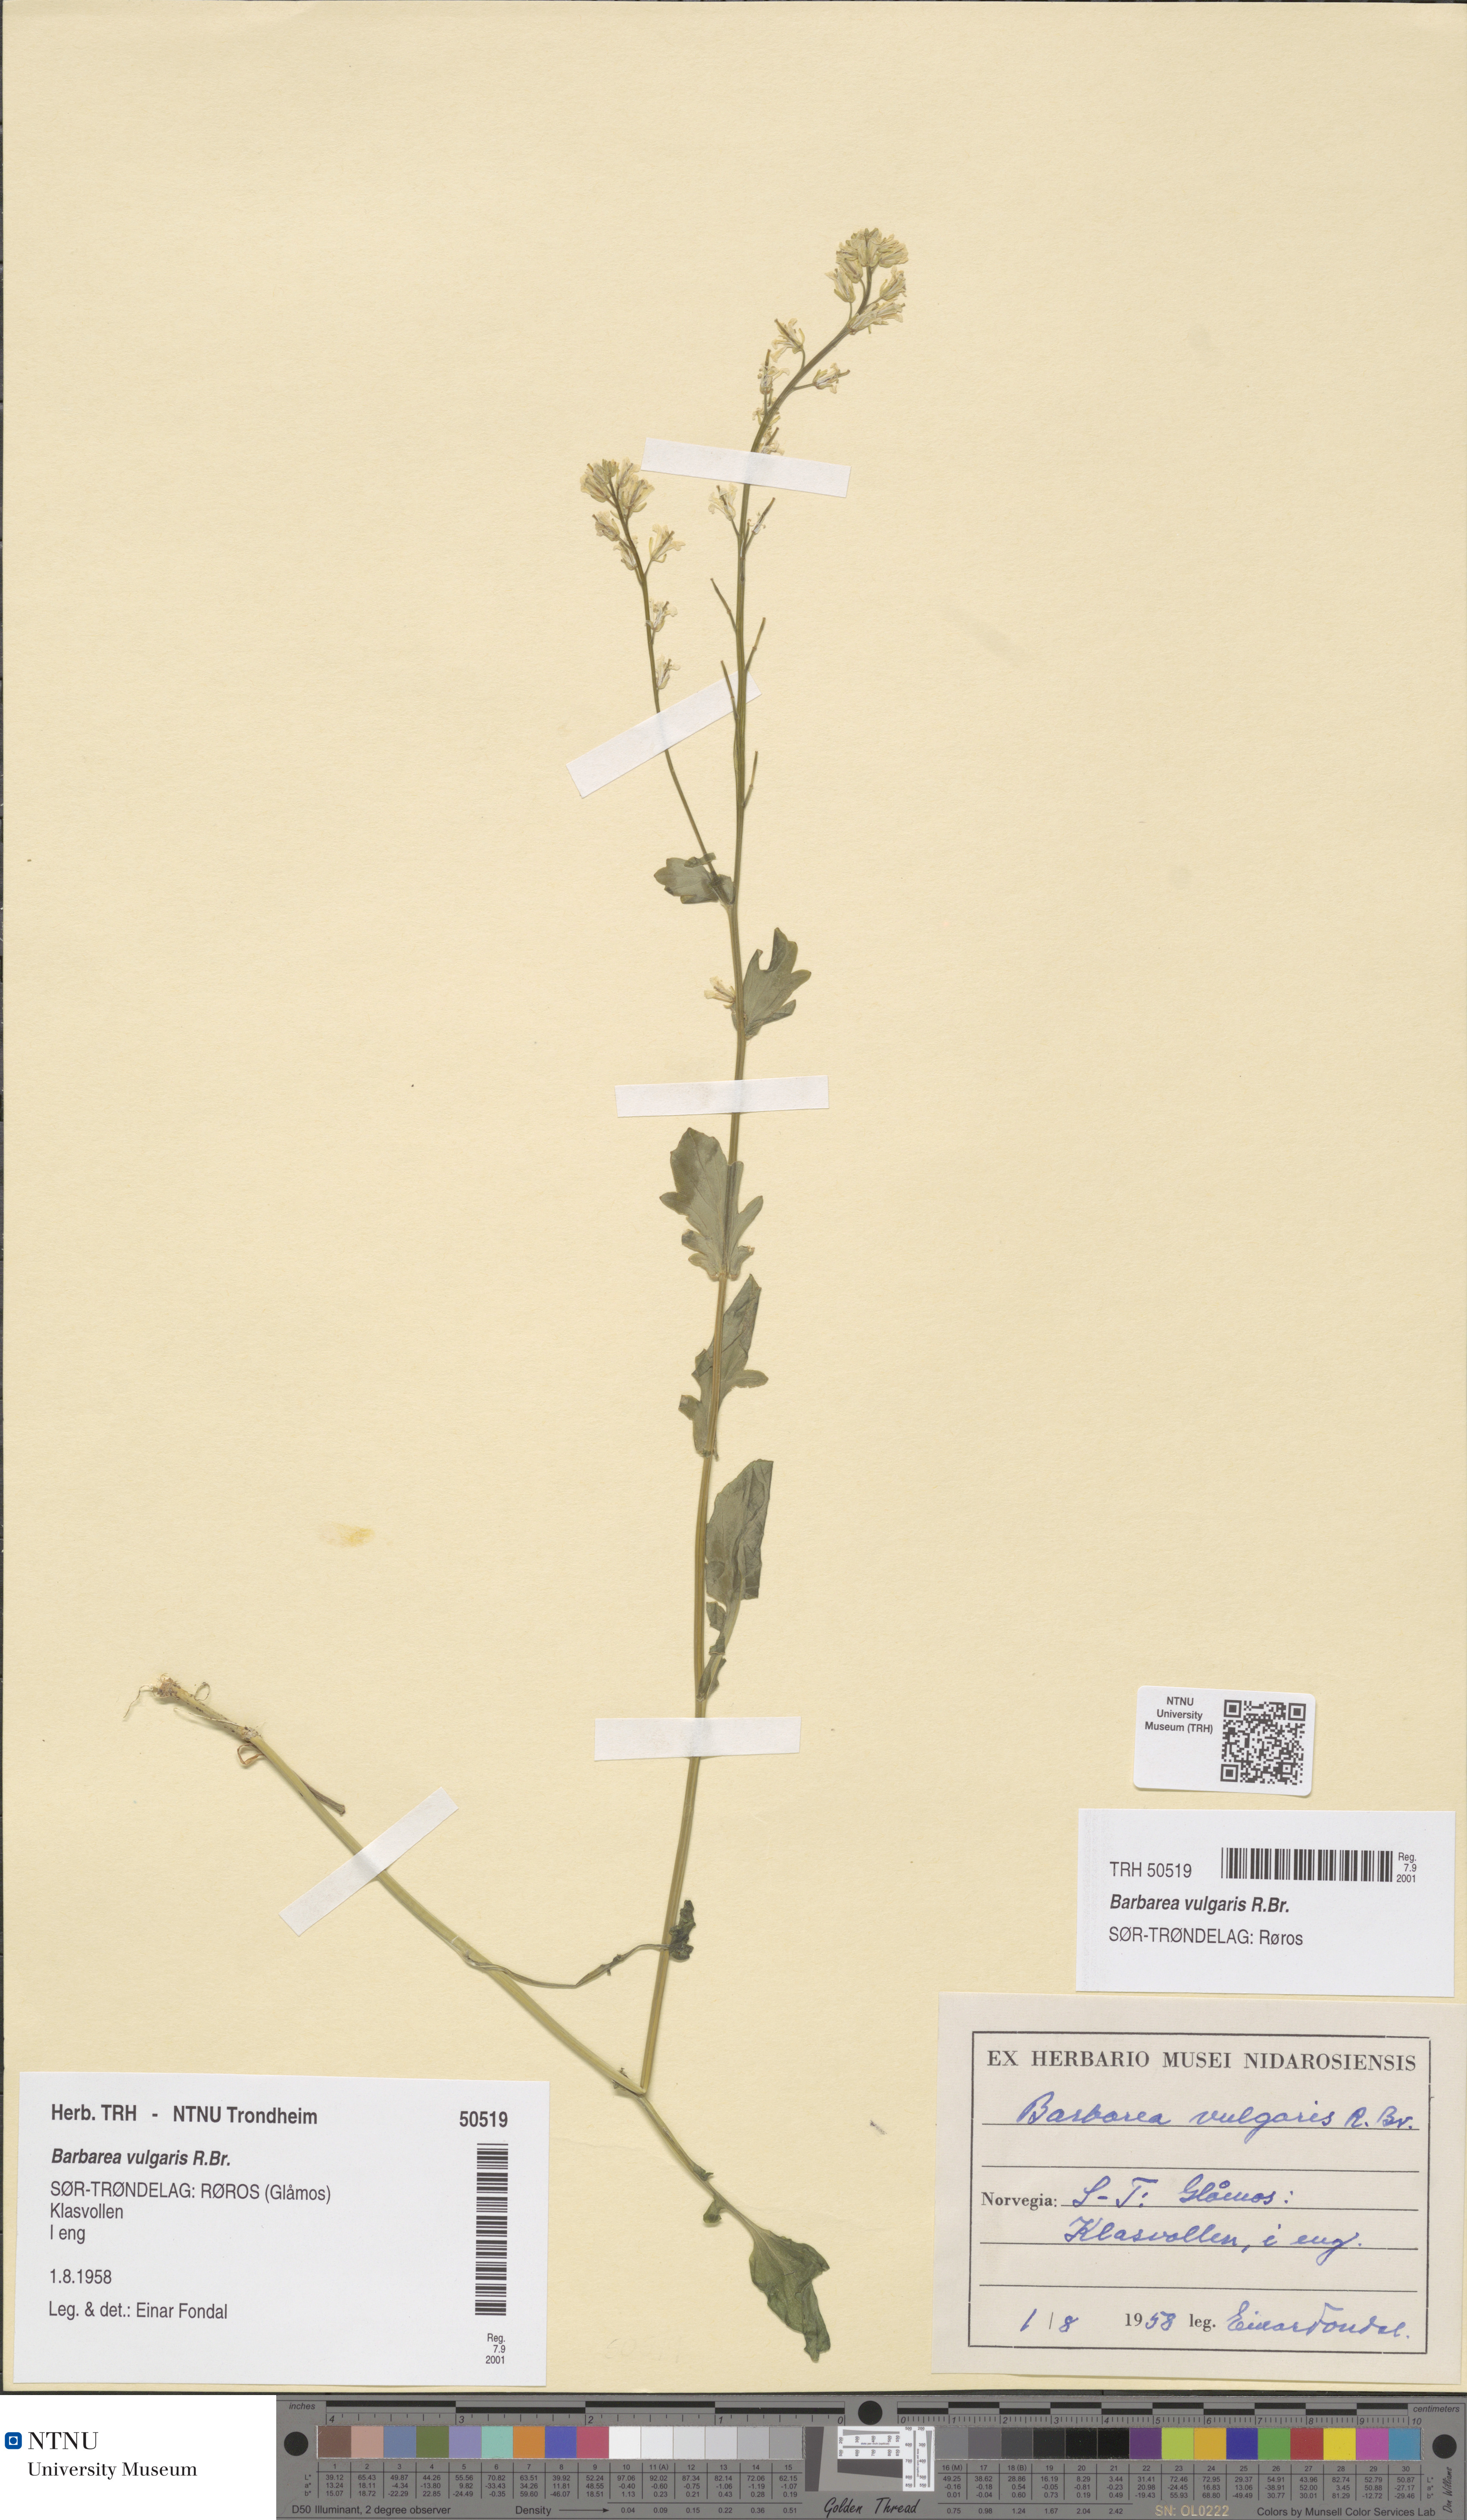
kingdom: Plantae
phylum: Tracheophyta
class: Magnoliopsida
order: Brassicales
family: Brassicaceae
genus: Barbarea
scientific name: Barbarea vulgaris
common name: Cressy-greens
